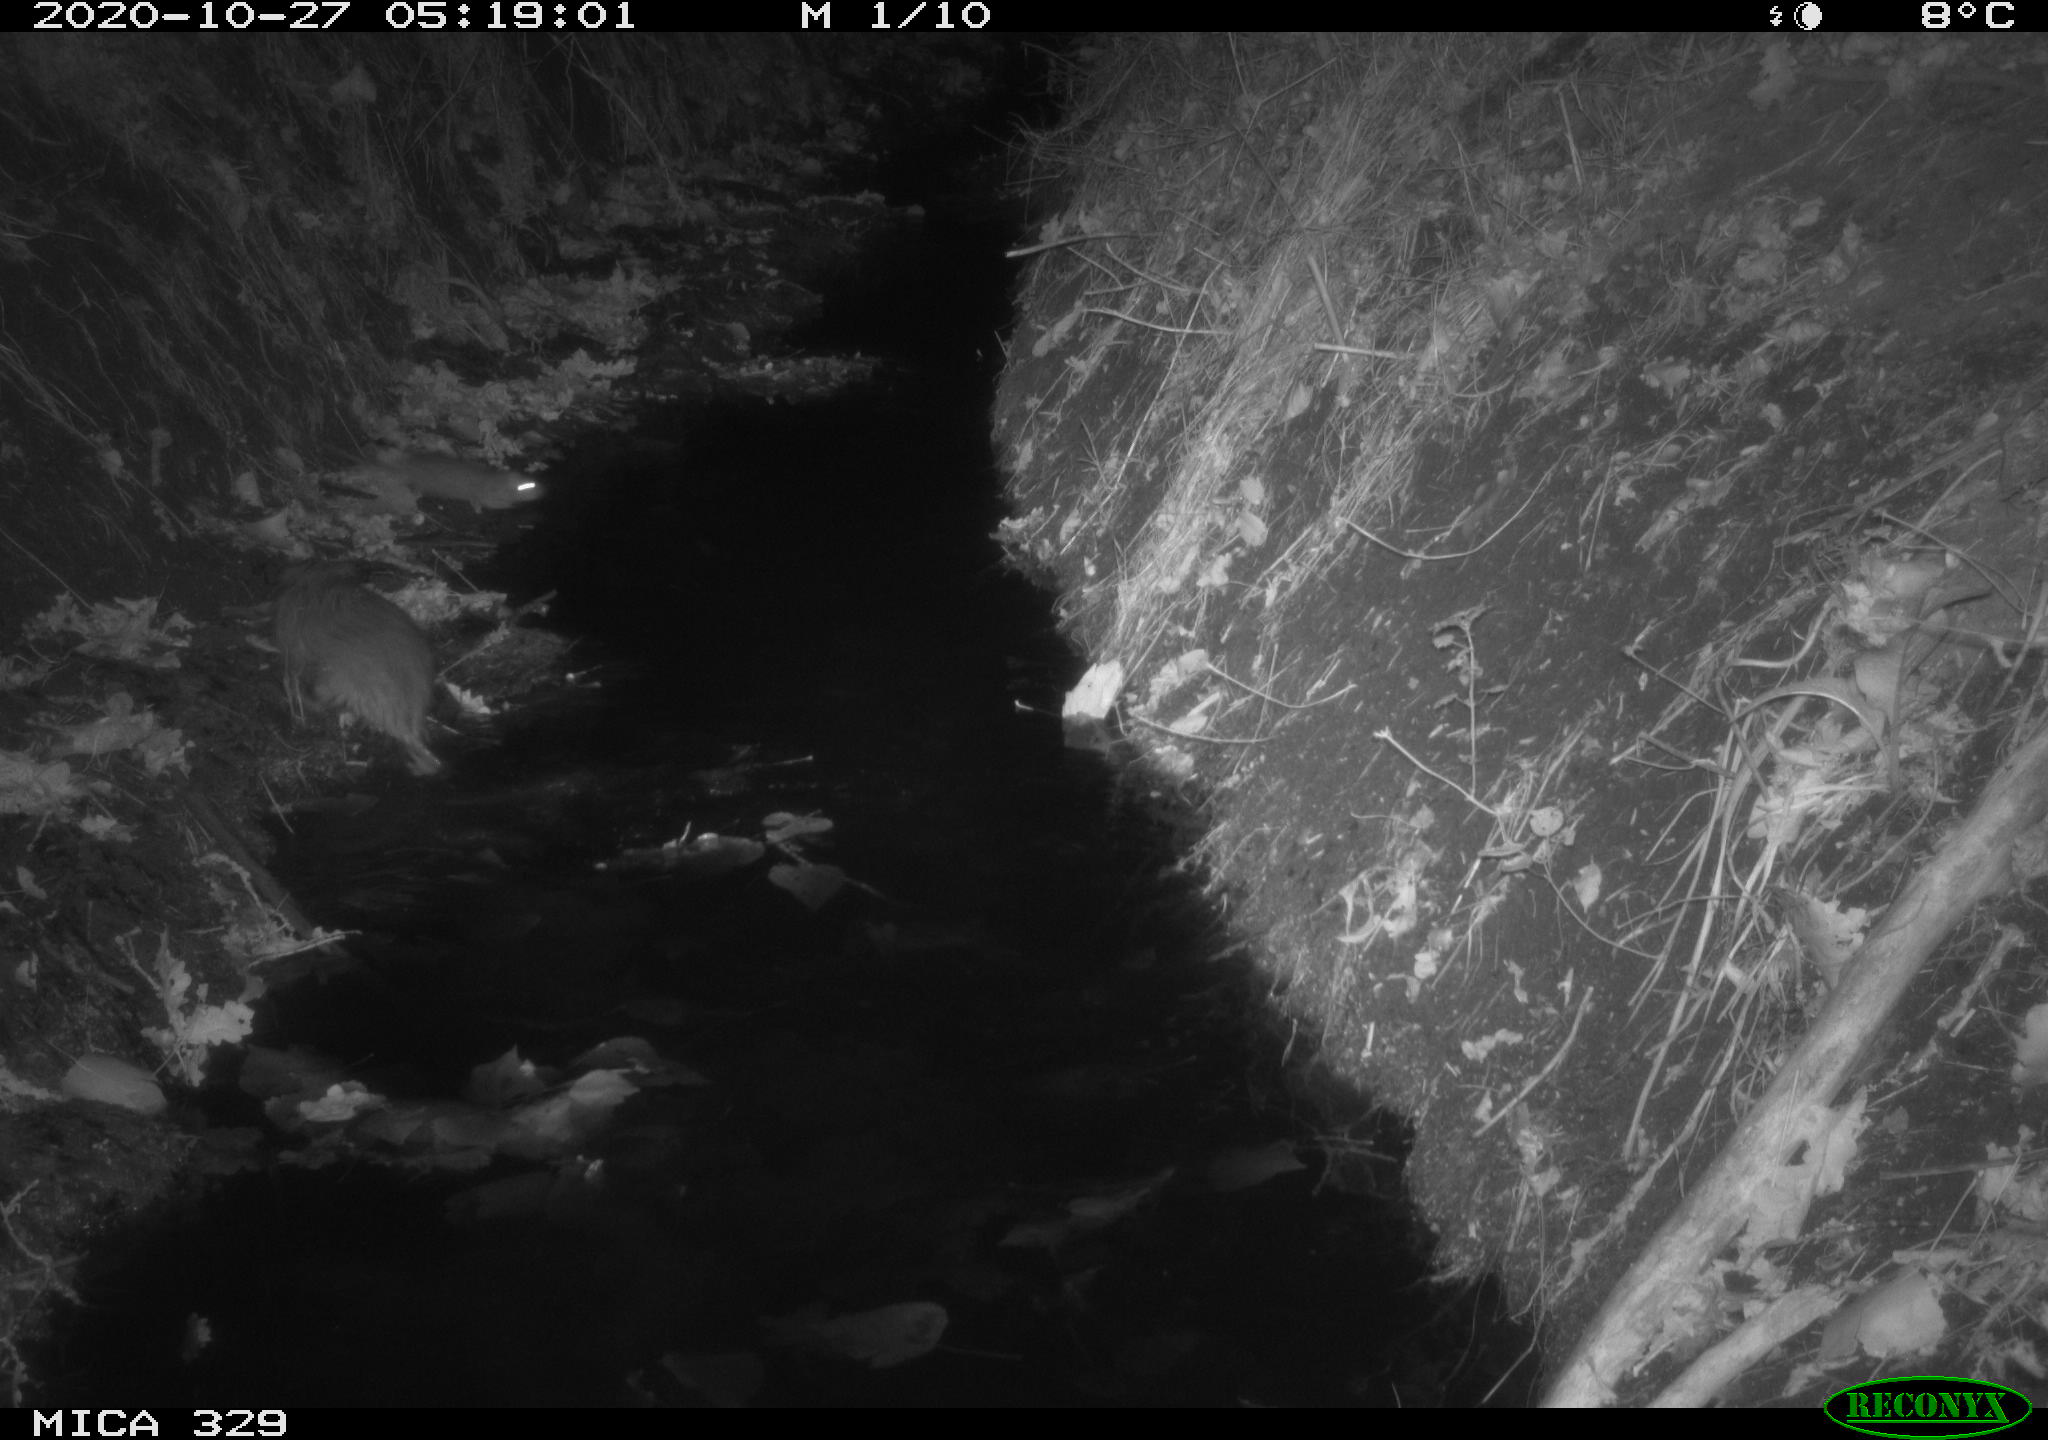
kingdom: Animalia
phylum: Chordata
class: Mammalia
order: Rodentia
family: Cricetidae
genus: Ondatra
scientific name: Ondatra zibethicus
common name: Muskrat
